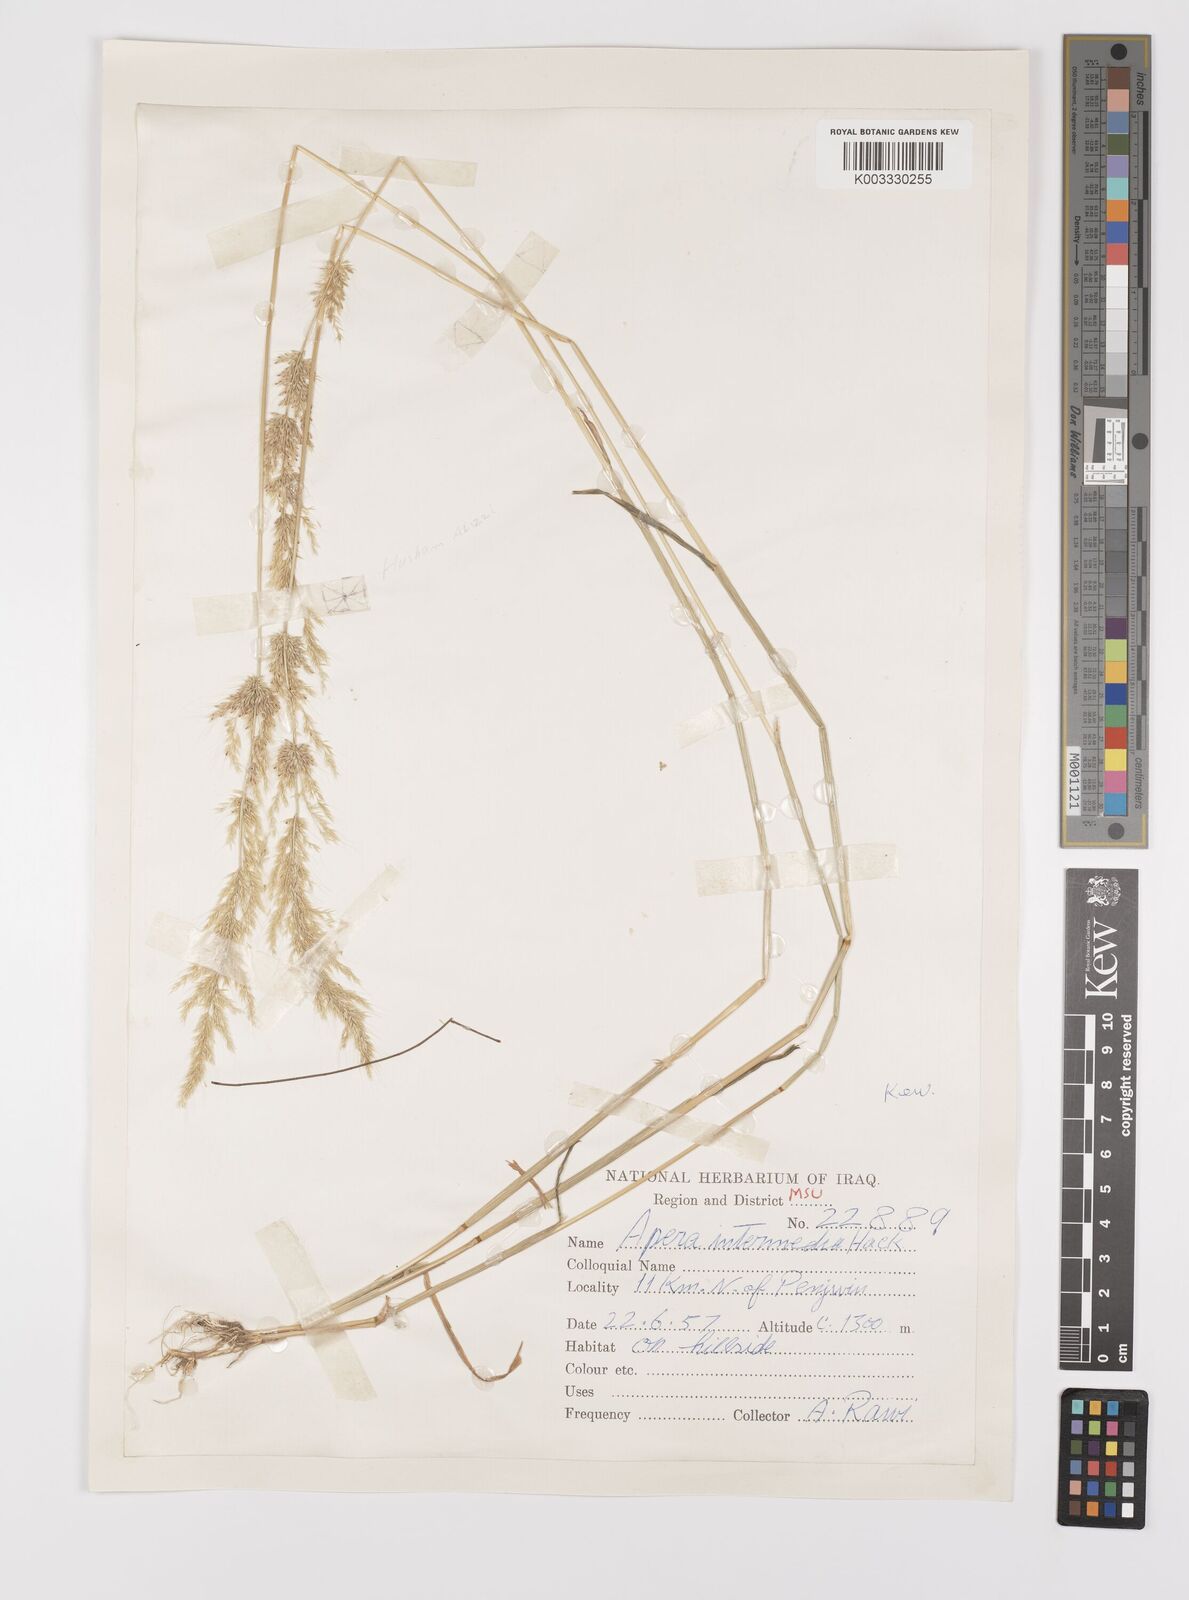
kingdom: Plantae
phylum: Tracheophyta
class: Liliopsida
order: Poales
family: Poaceae
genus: Apera
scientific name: Apera intermedia
